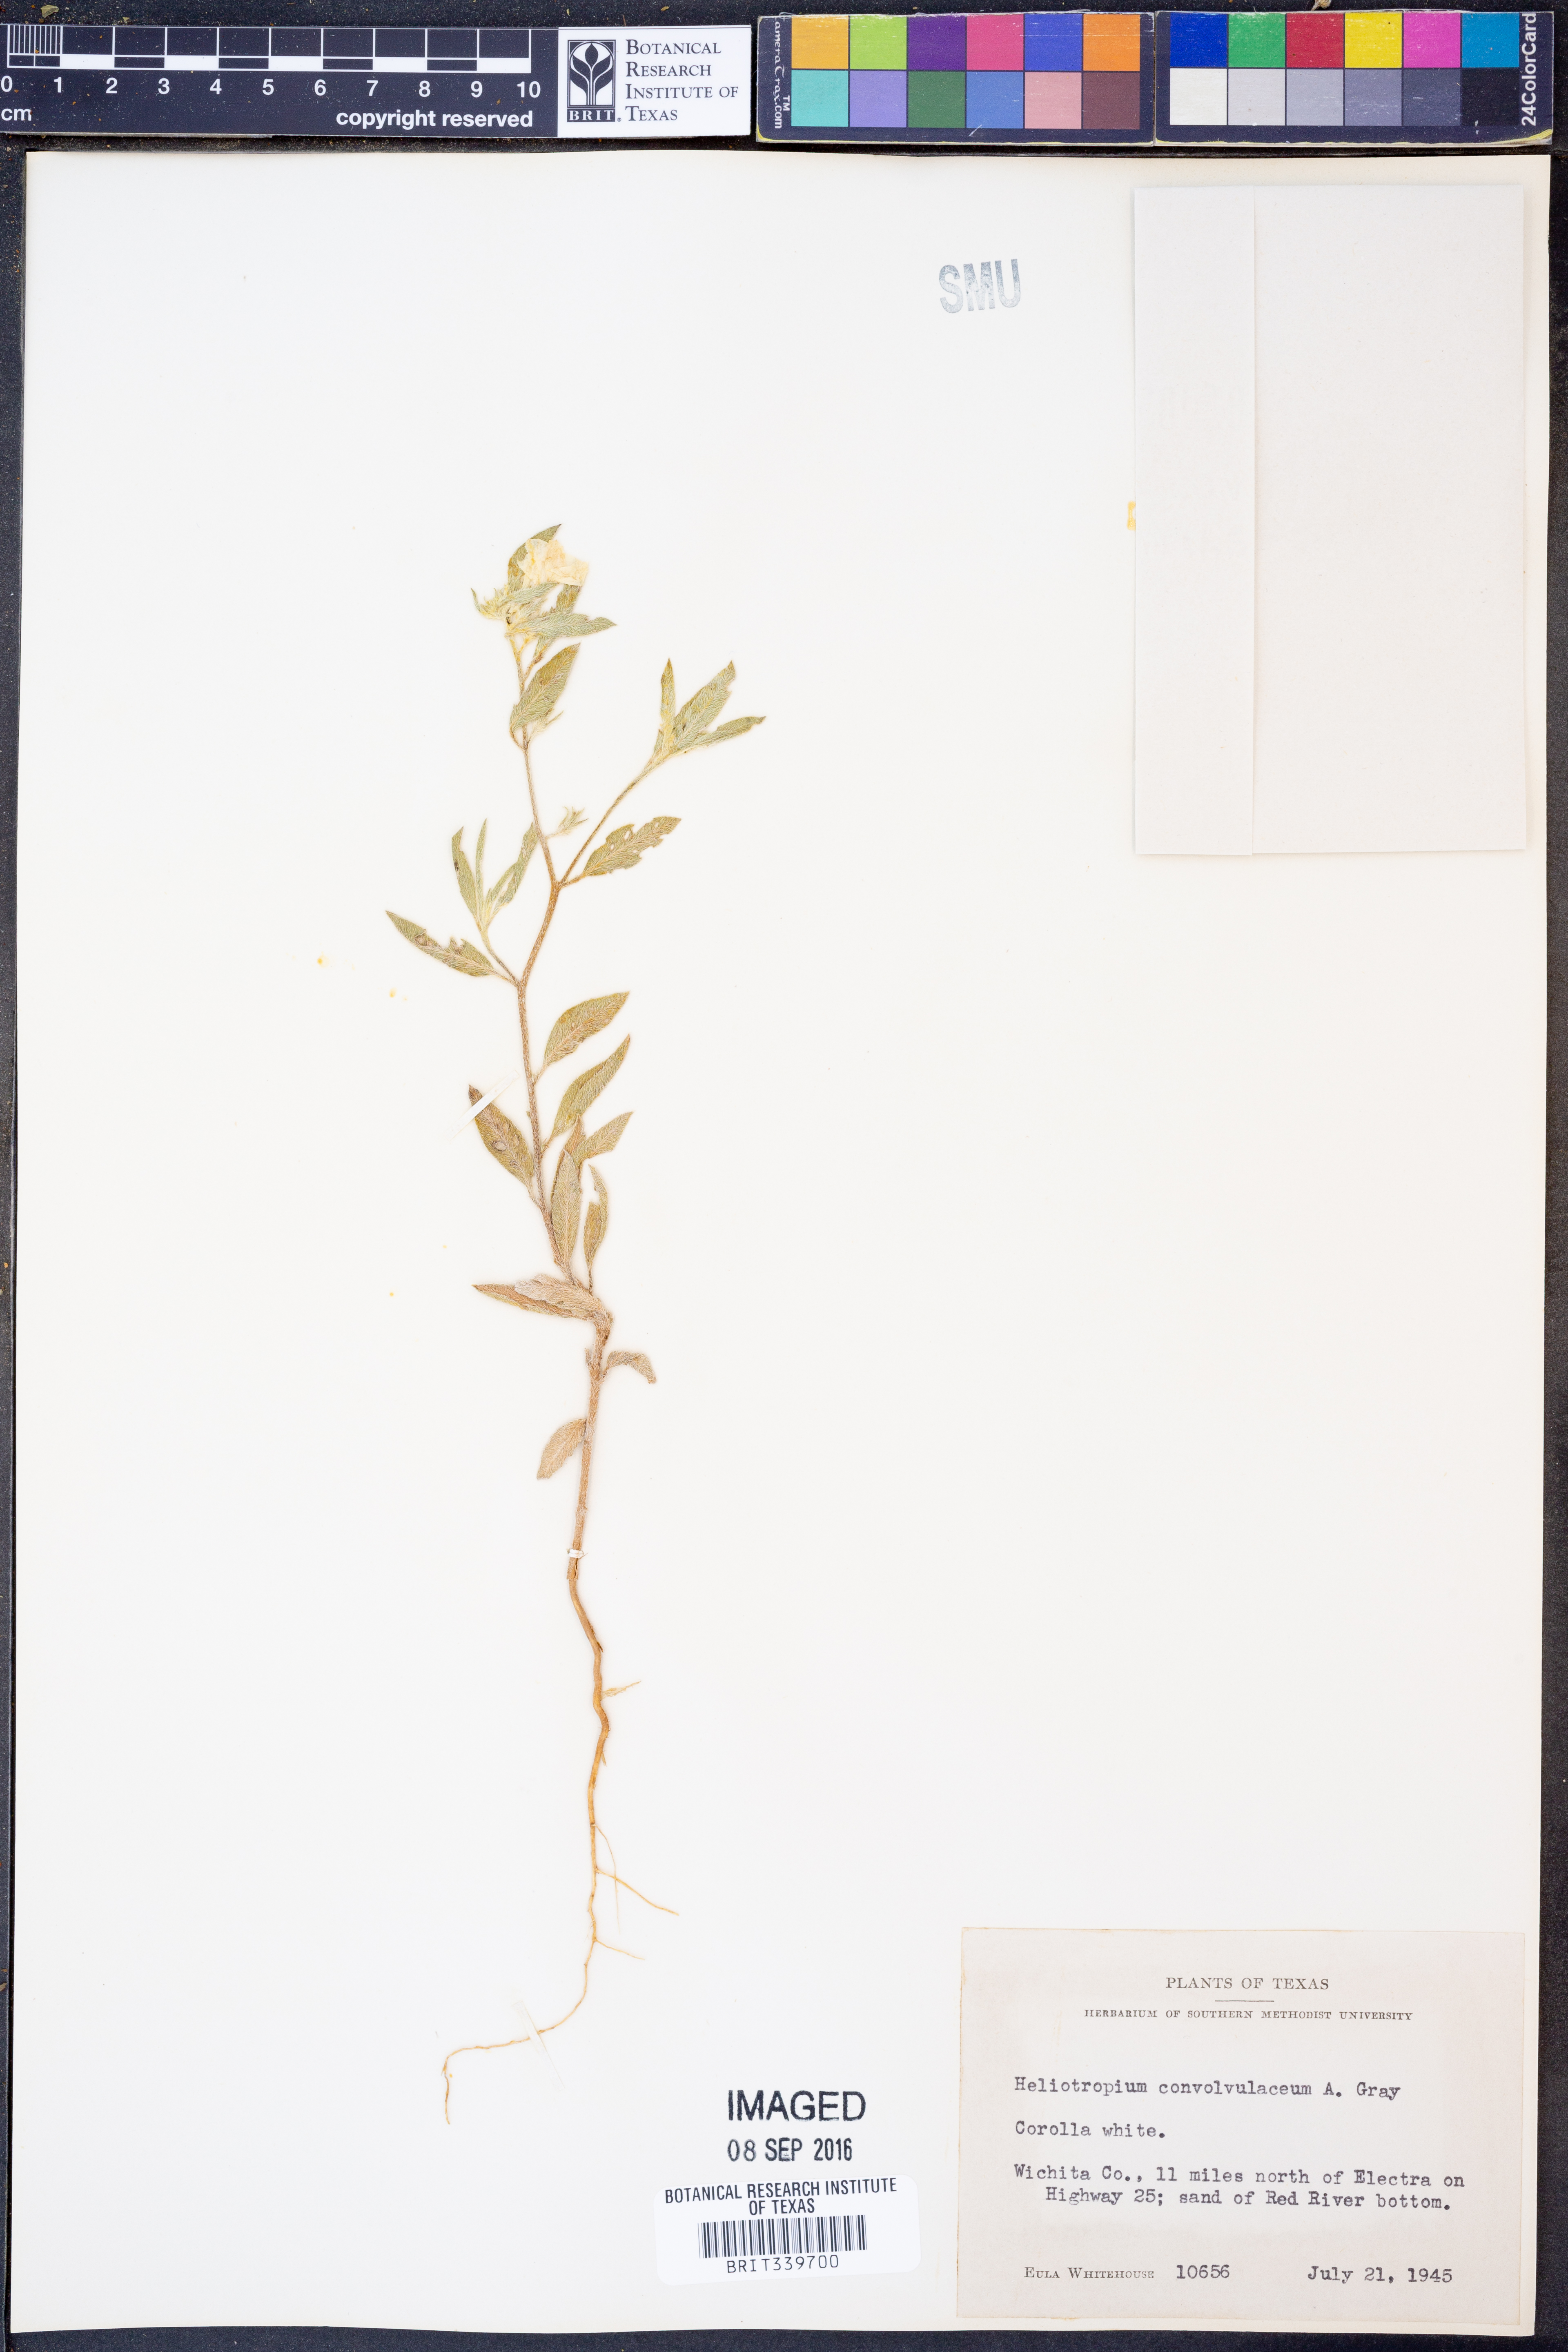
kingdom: Plantae
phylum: Tracheophyta
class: Magnoliopsida
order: Boraginales
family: Heliotropiaceae
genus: Euploca
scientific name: Euploca convolvulacea
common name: Bindweed heliotrope
